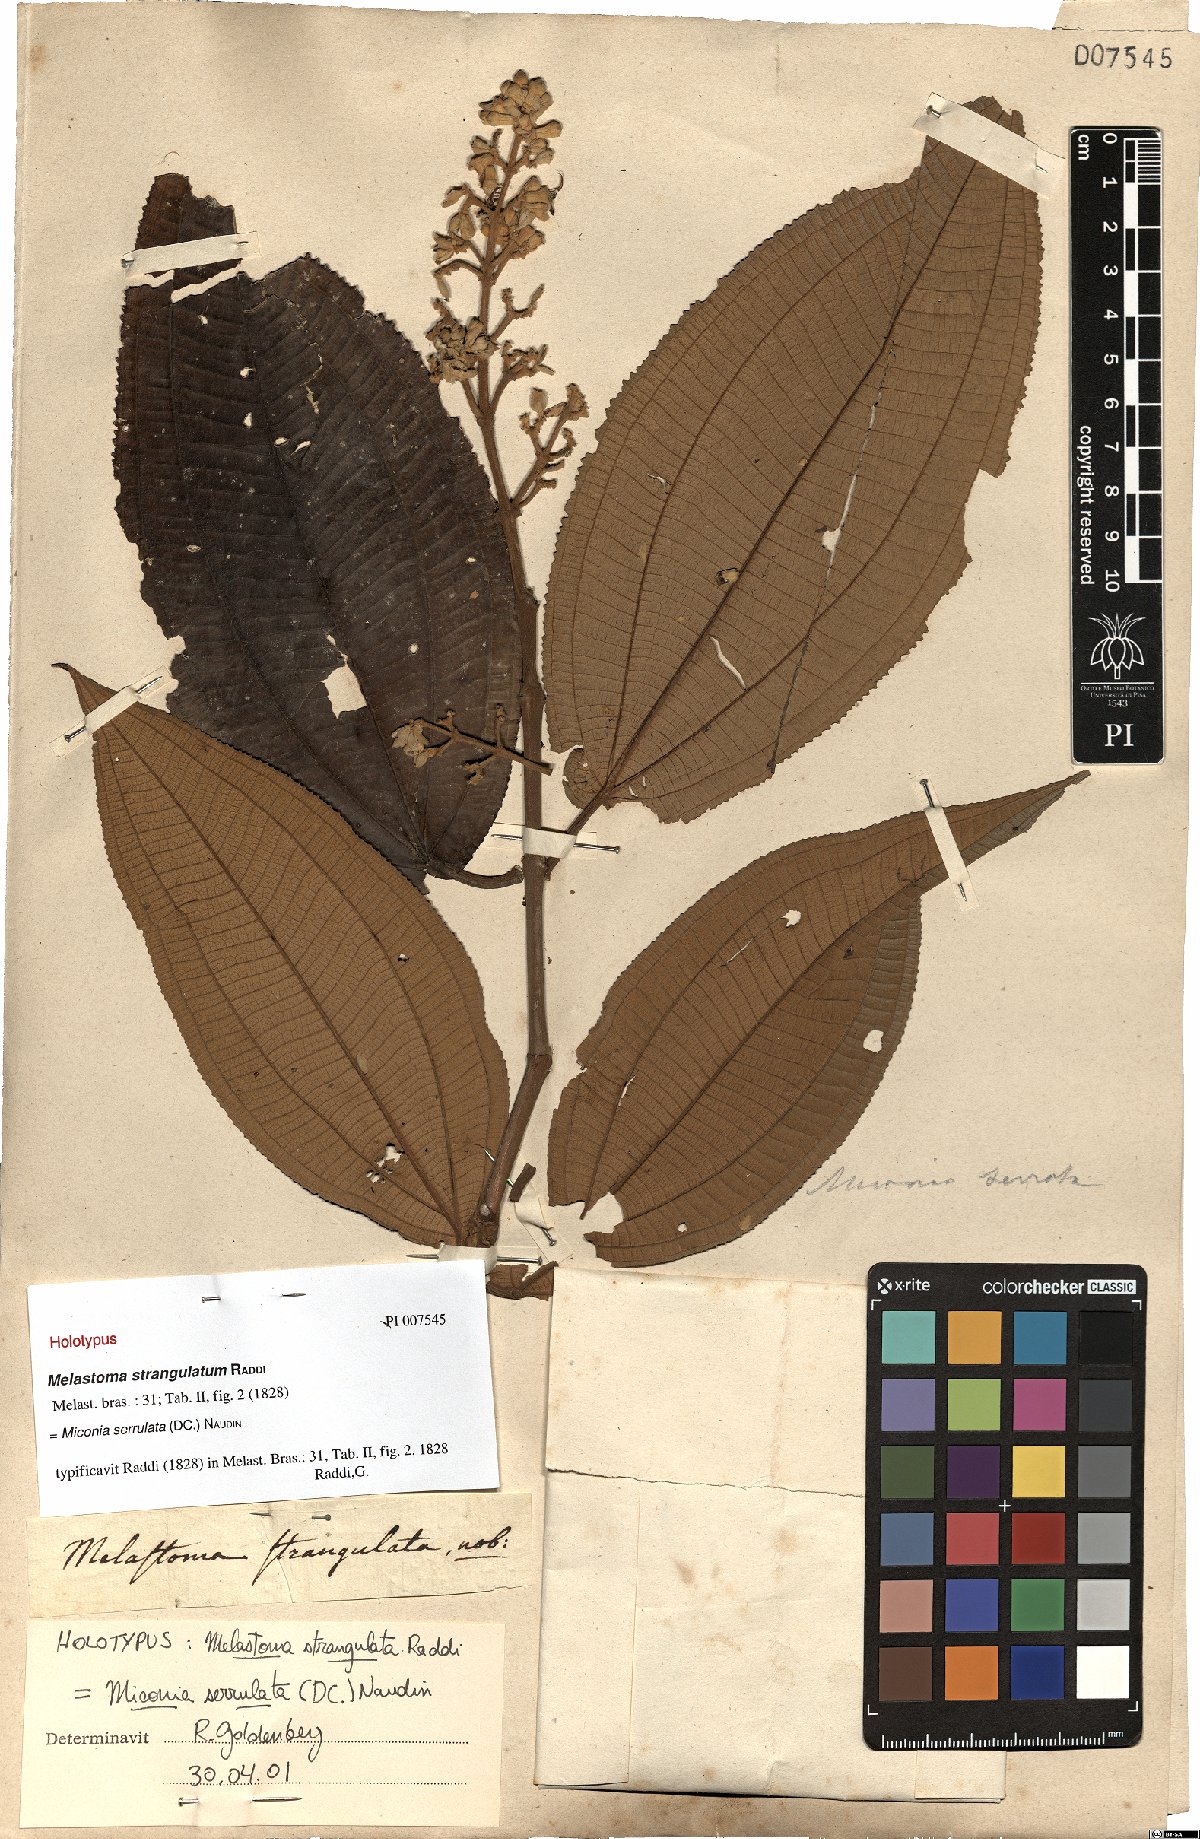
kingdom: Plantae
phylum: Tracheophyta
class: Magnoliopsida
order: Myrtales
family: Melastomataceae
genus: Miconia
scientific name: Miconia serrulata
